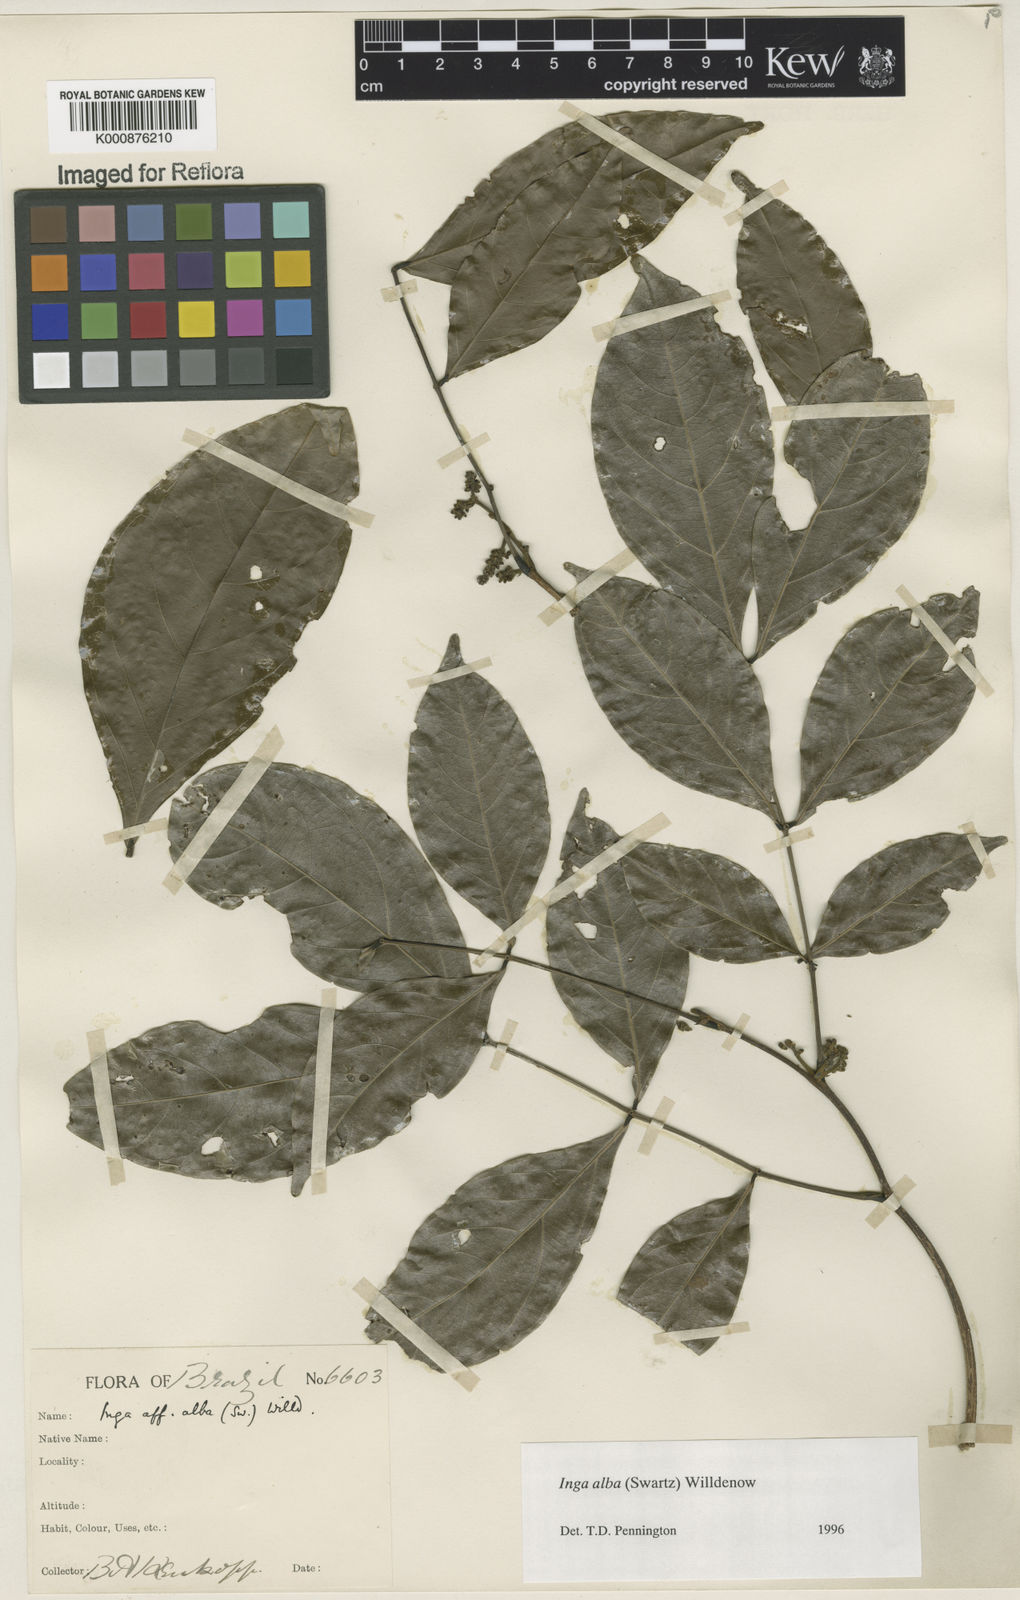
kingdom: Plantae
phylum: Tracheophyta
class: Magnoliopsida
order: Fabales
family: Fabaceae
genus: Inga
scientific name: Inga alba
